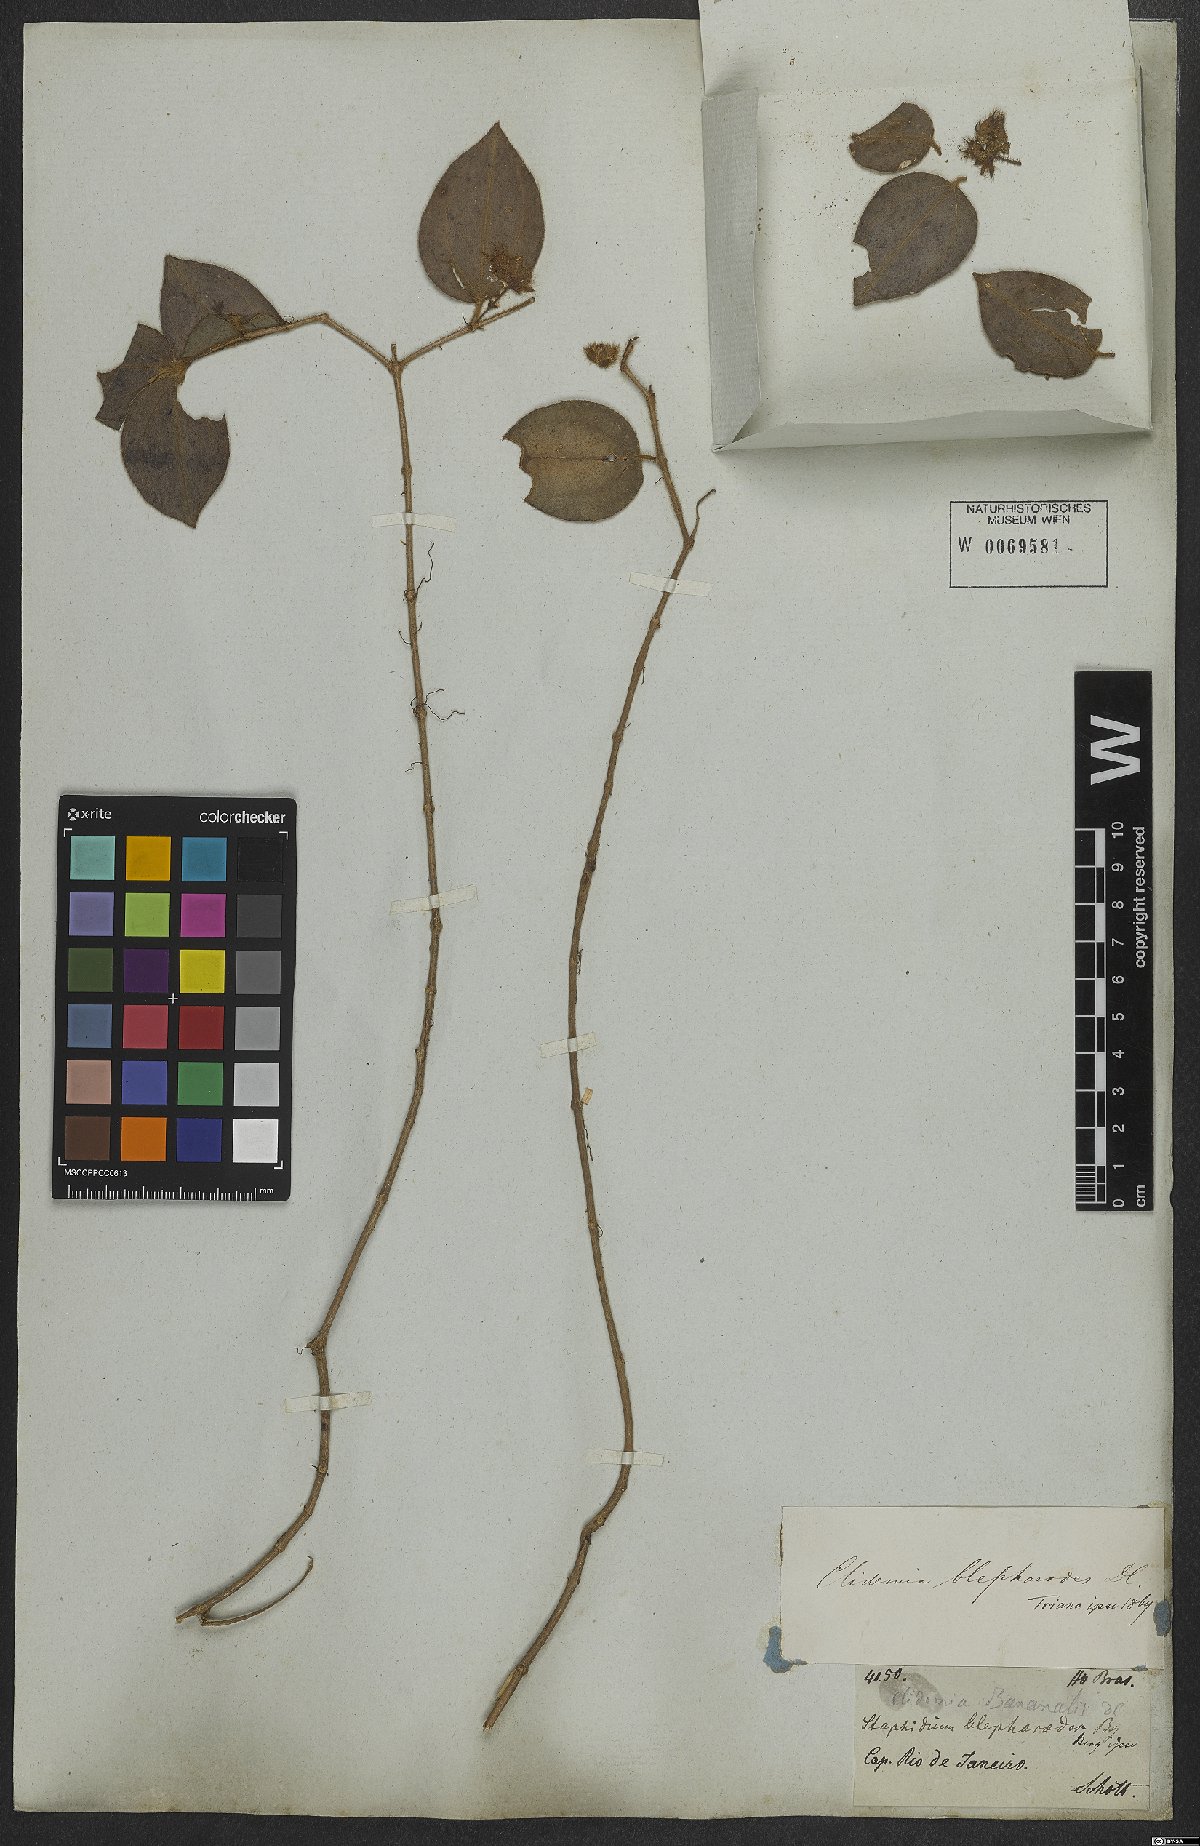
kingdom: Plantae
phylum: Tracheophyta
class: Magnoliopsida
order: Myrtales
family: Melastomataceae
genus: Miconia
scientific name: Miconia blepharodes
